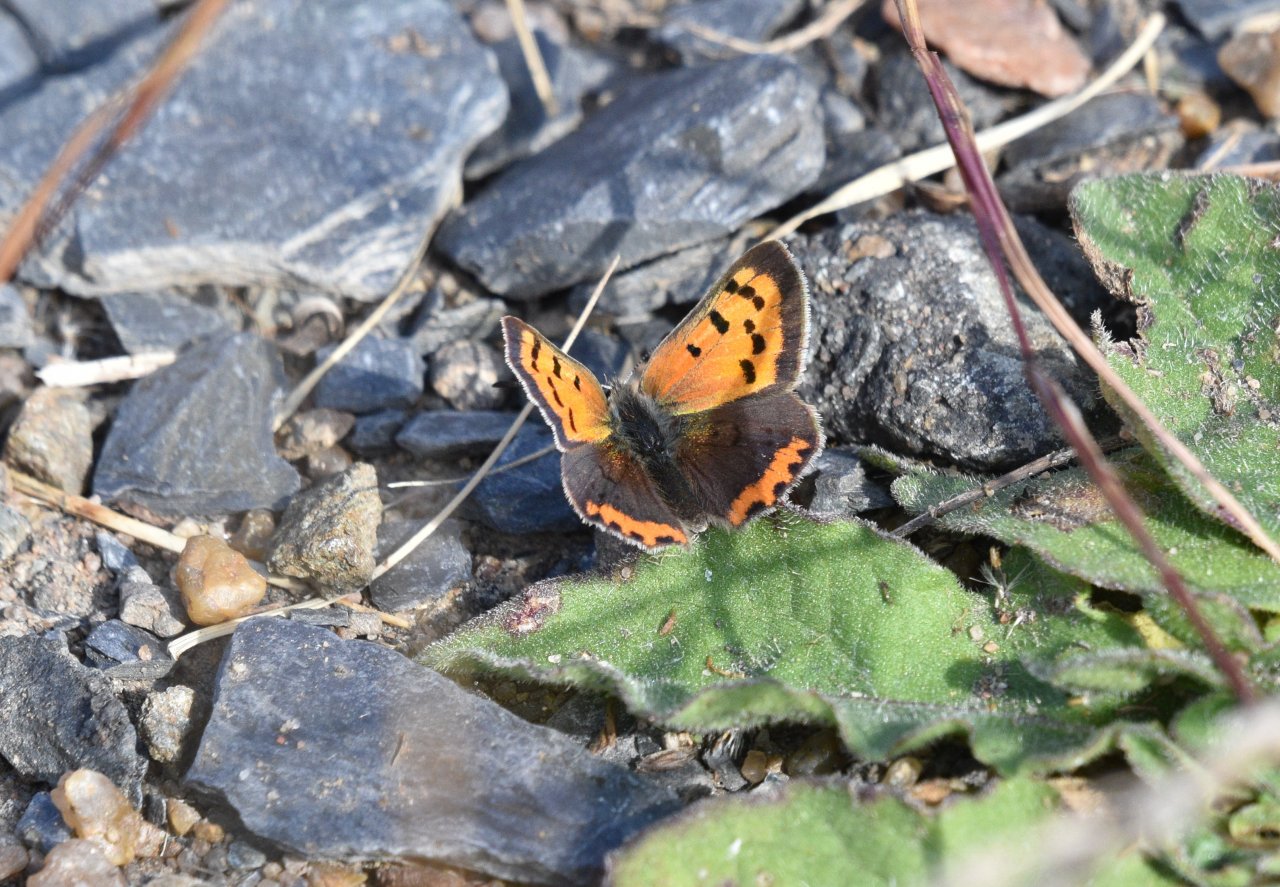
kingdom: Animalia
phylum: Arthropoda
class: Insecta
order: Lepidoptera
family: Lycaenidae
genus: Lycaena
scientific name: Lycaena phlaeas
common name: American Copper
